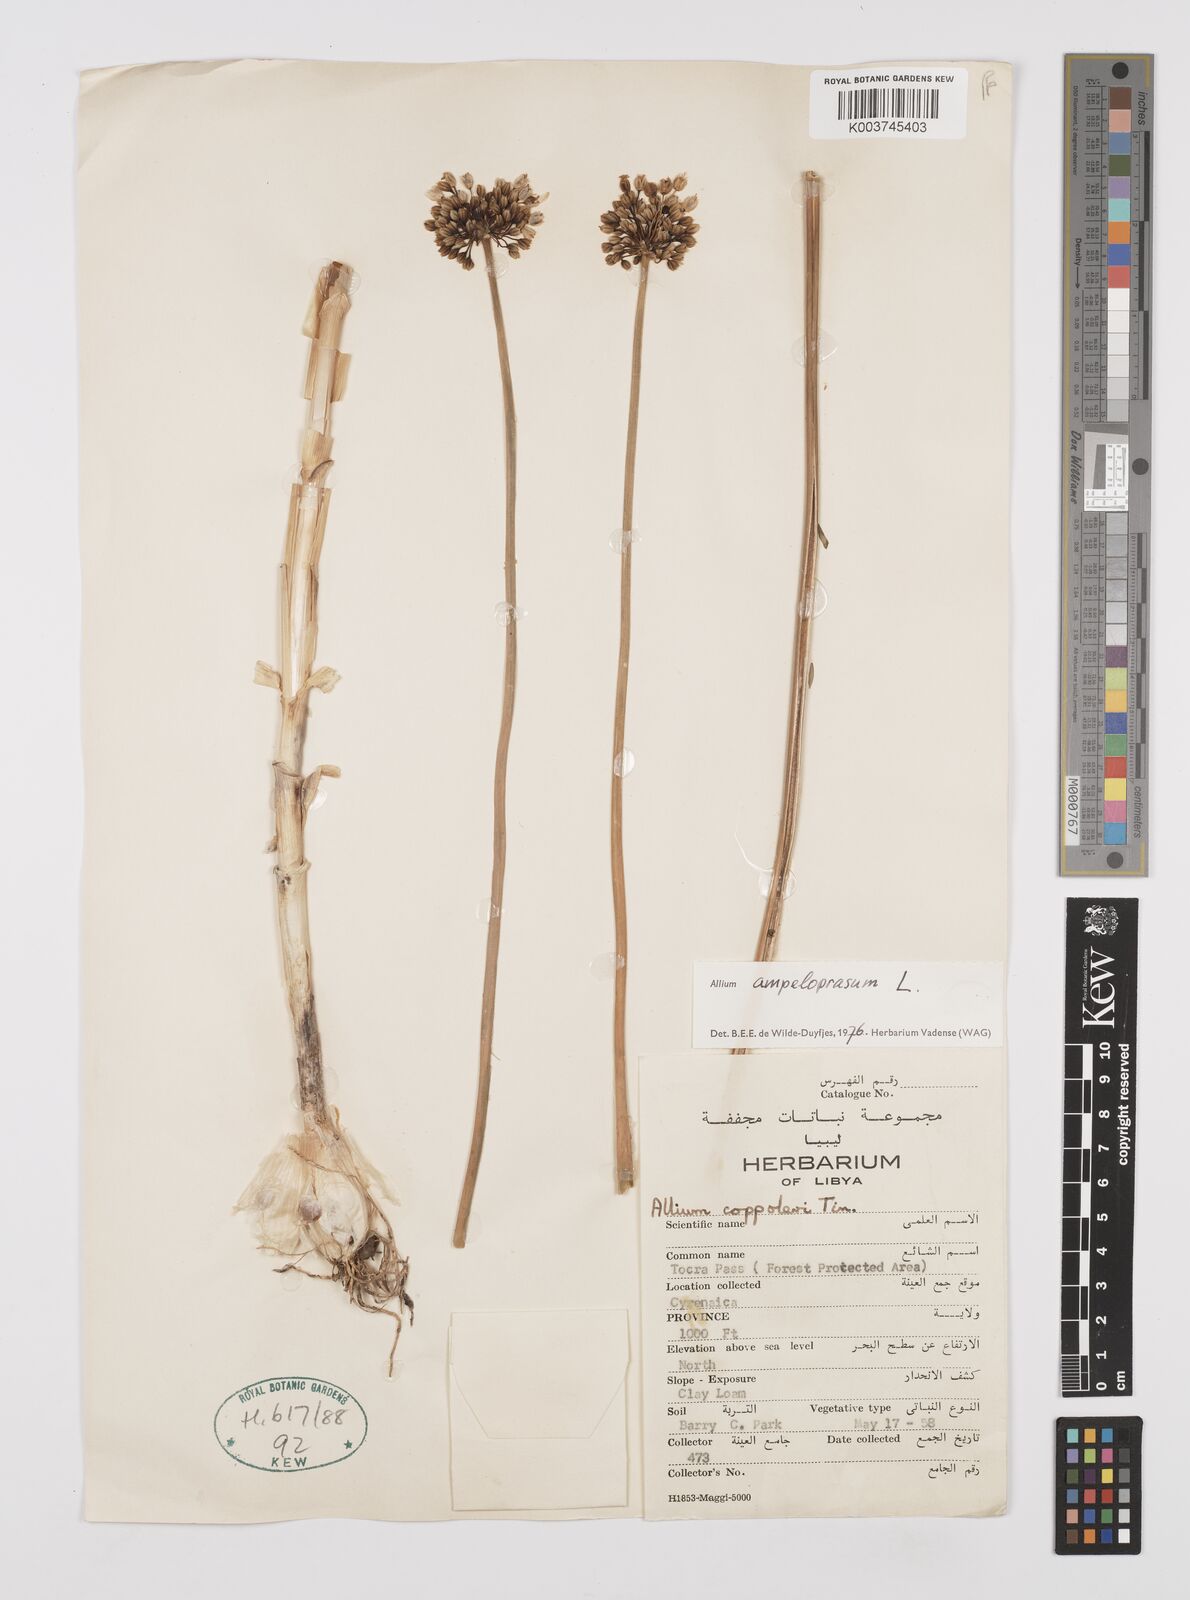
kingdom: Plantae
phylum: Tracheophyta
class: Liliopsida
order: Asparagales
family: Amaryllidaceae
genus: Allium
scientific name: Allium rotundum
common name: Sand leek
